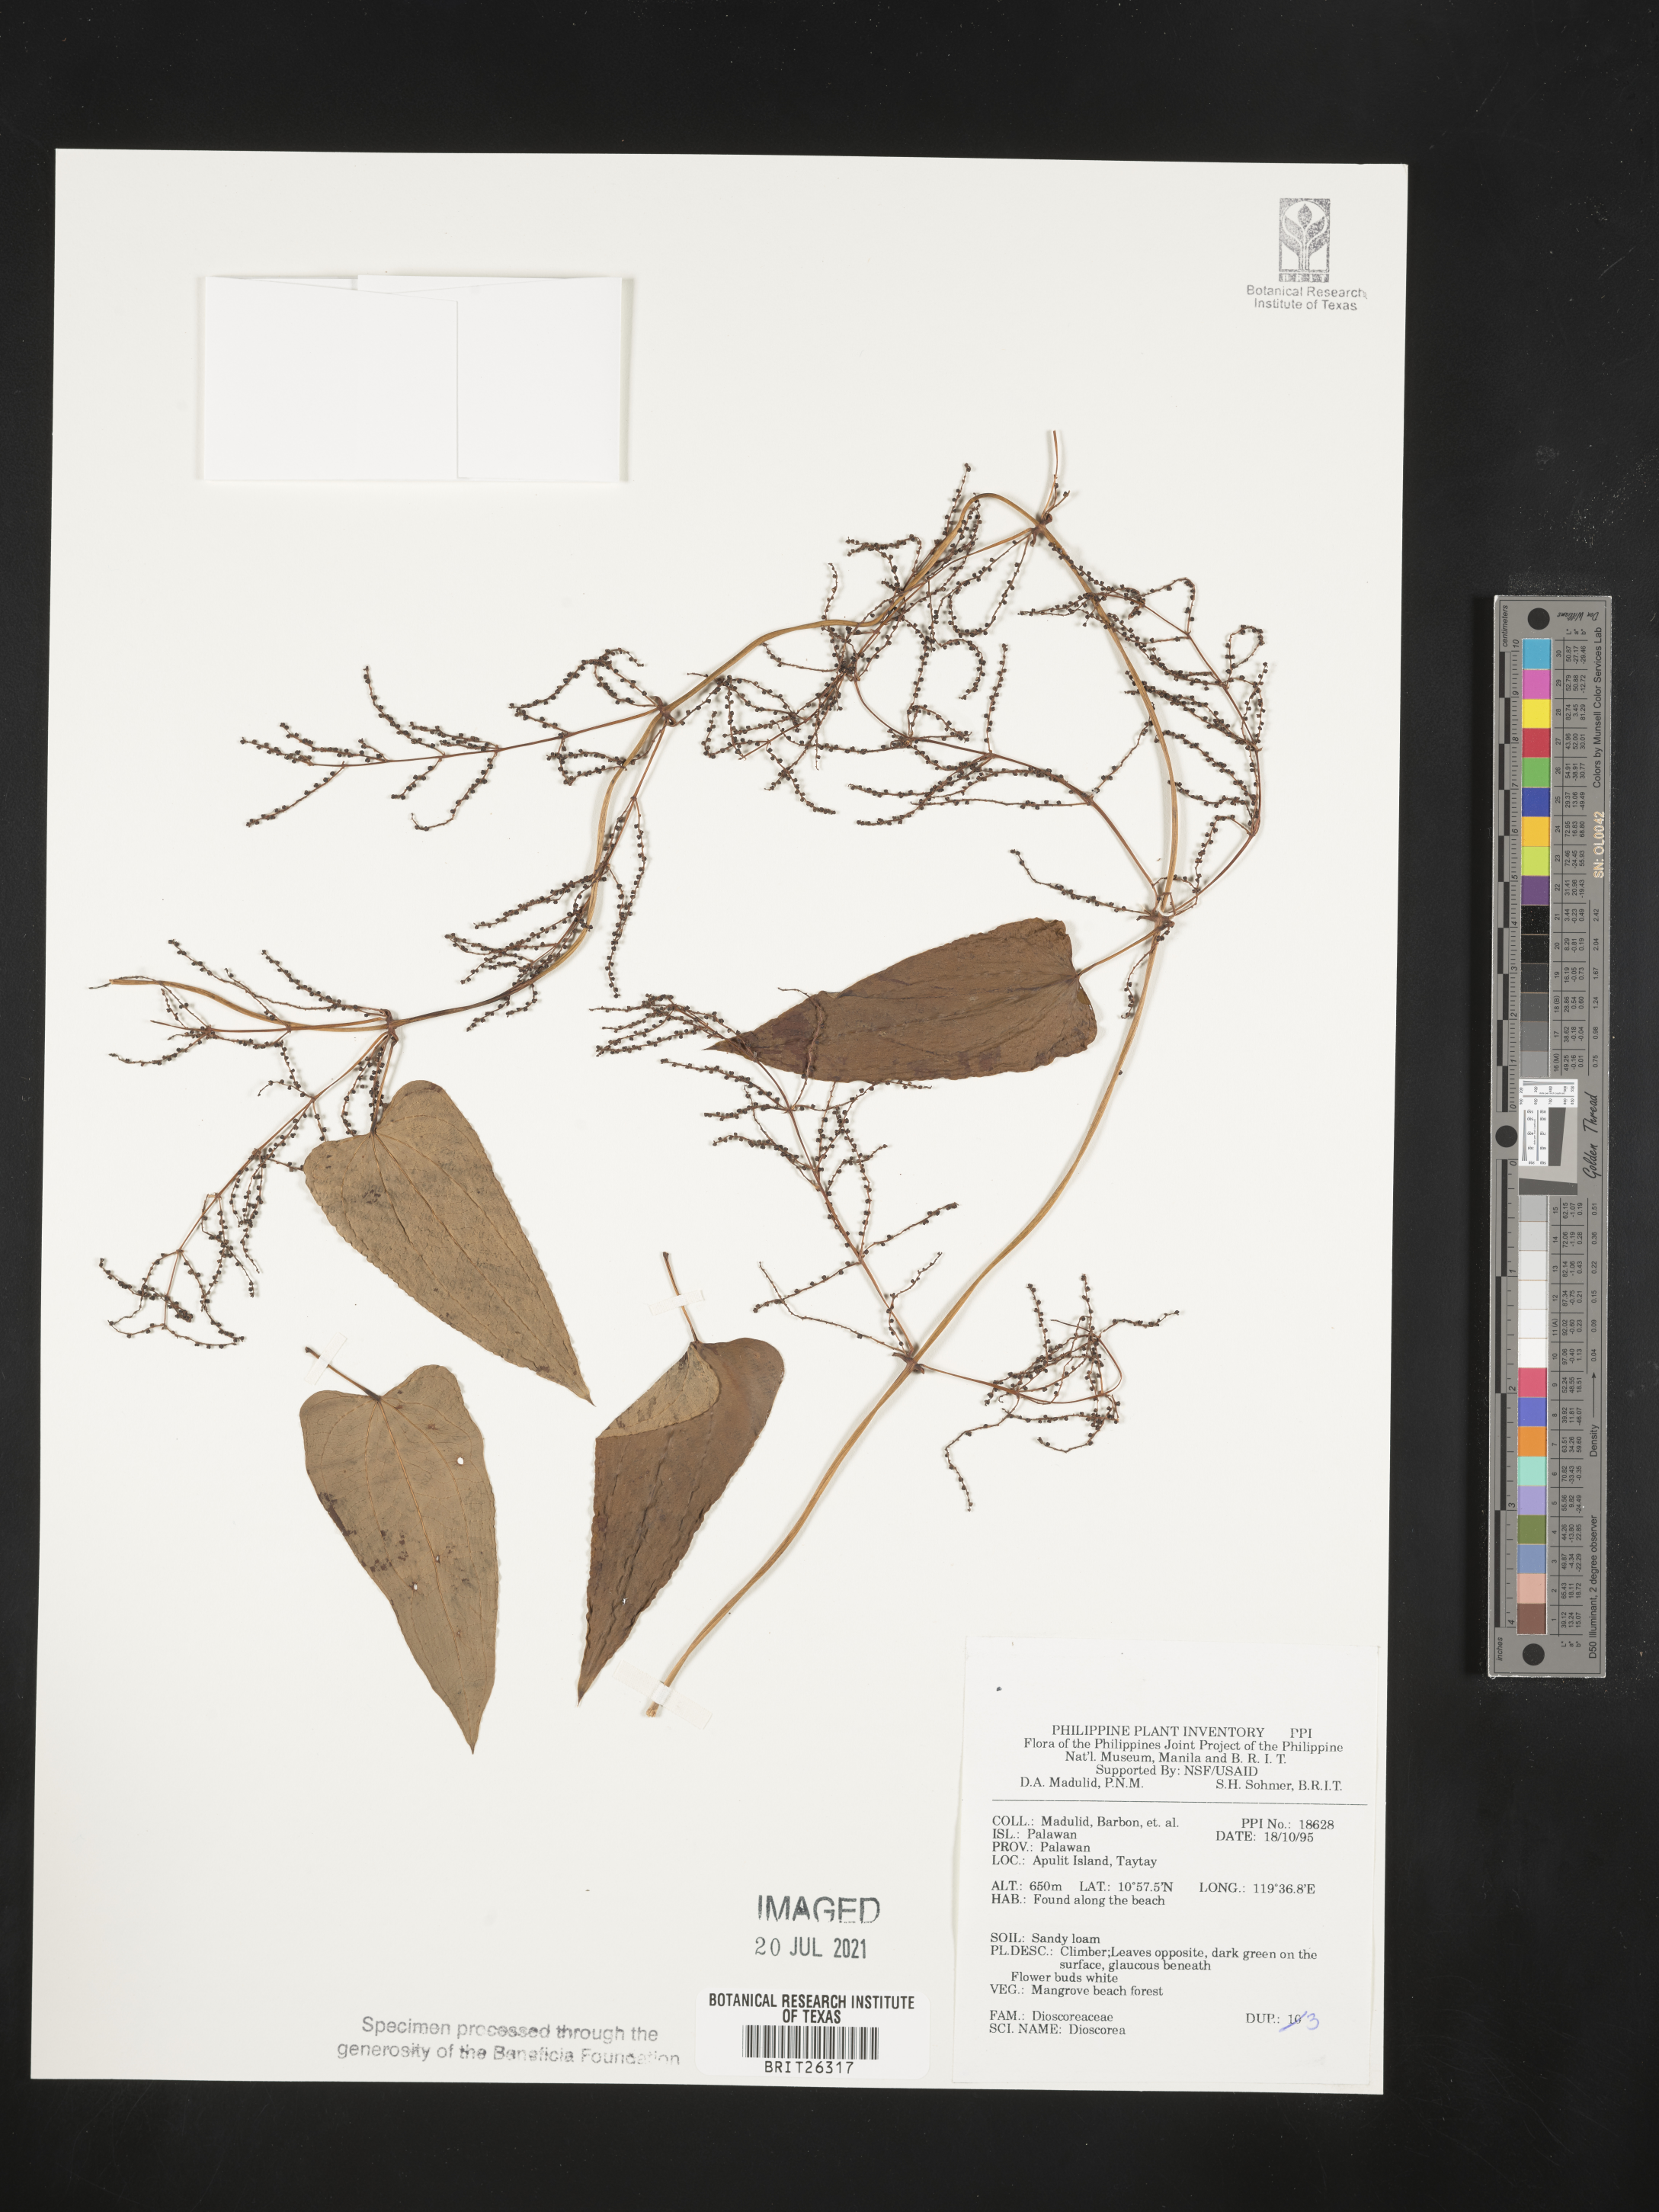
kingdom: Plantae
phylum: Tracheophyta
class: Liliopsida
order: Dioscoreales
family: Dioscoreaceae
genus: Dioscorea
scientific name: Dioscorea
